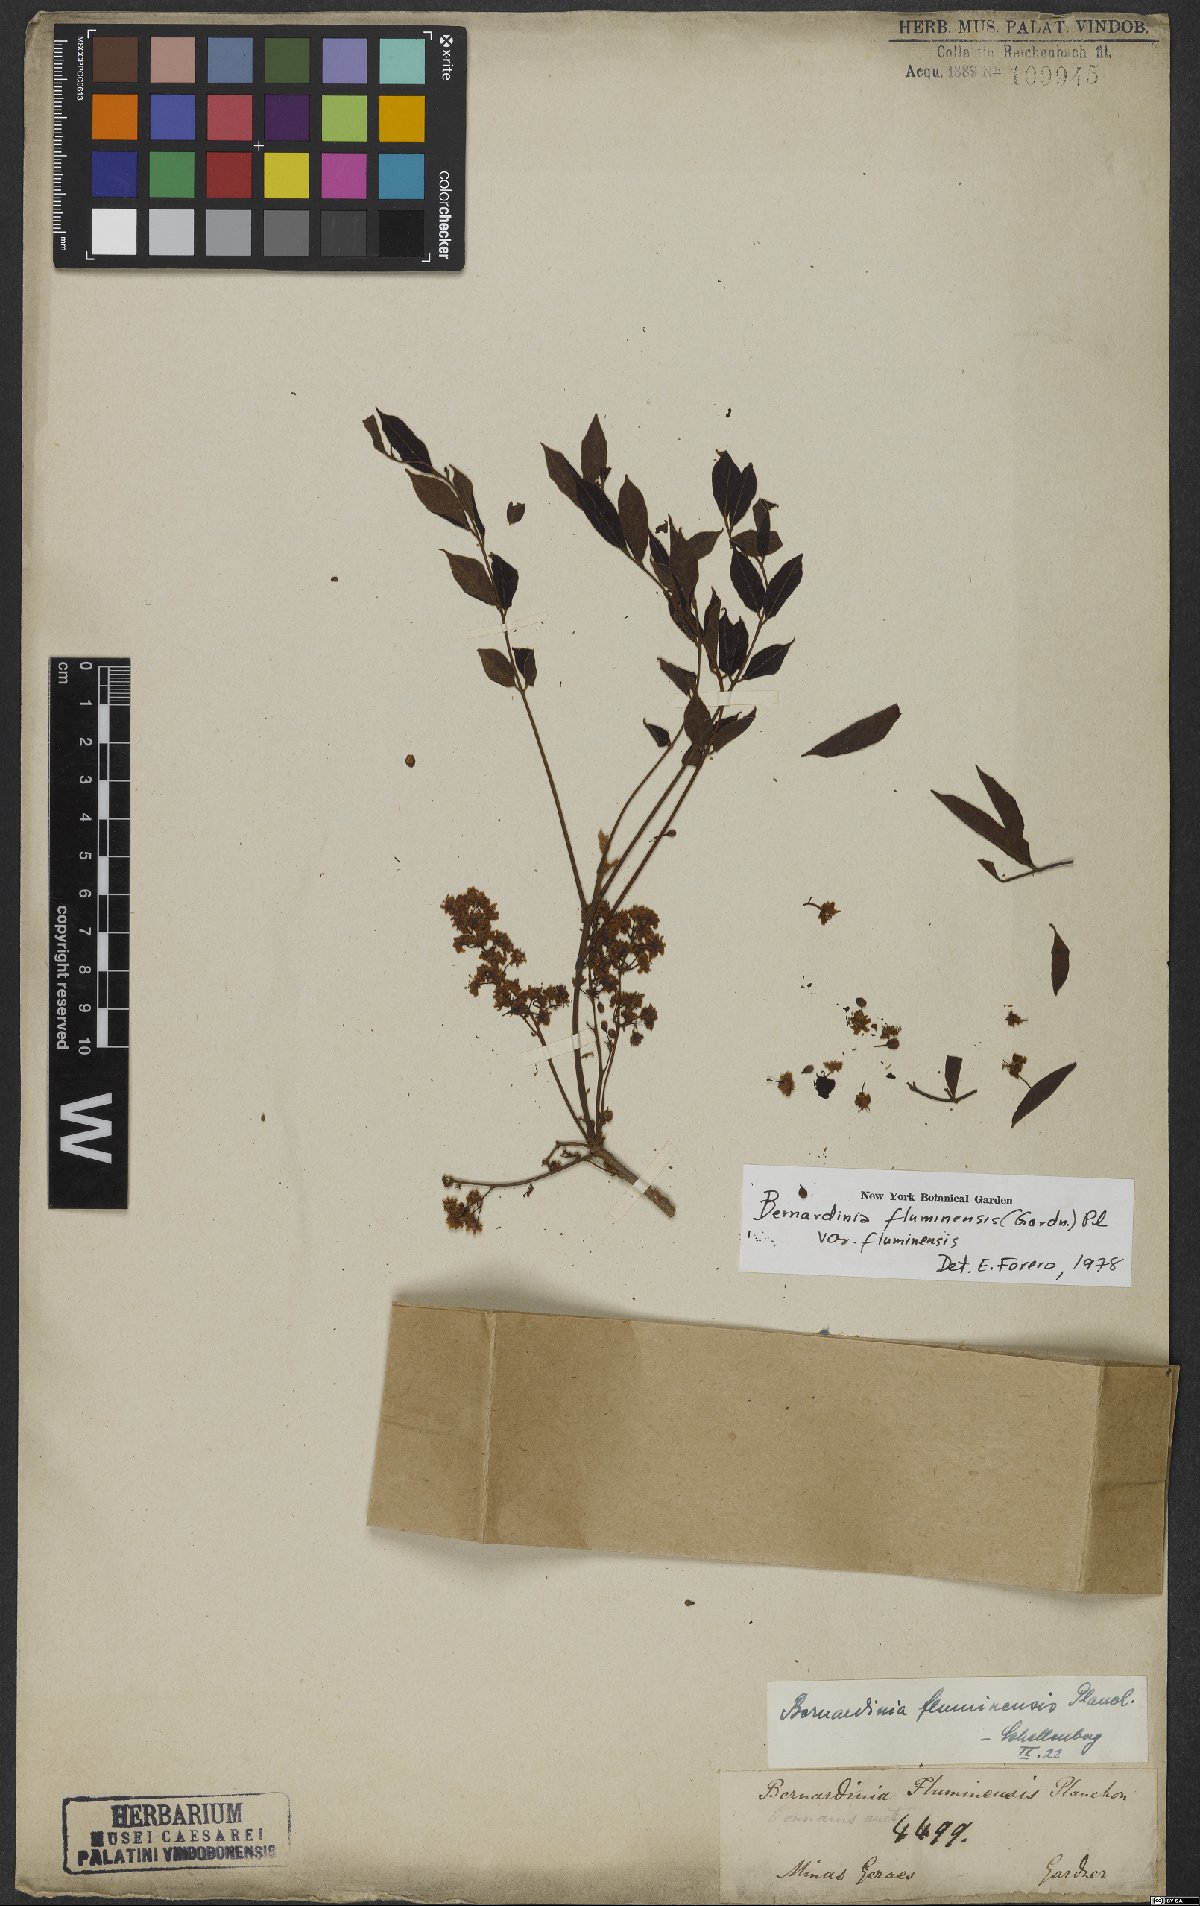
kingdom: Plantae
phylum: Tracheophyta
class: Magnoliopsida
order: Oxalidales
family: Connaraceae
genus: Rourea
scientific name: Rourea fluminensis
